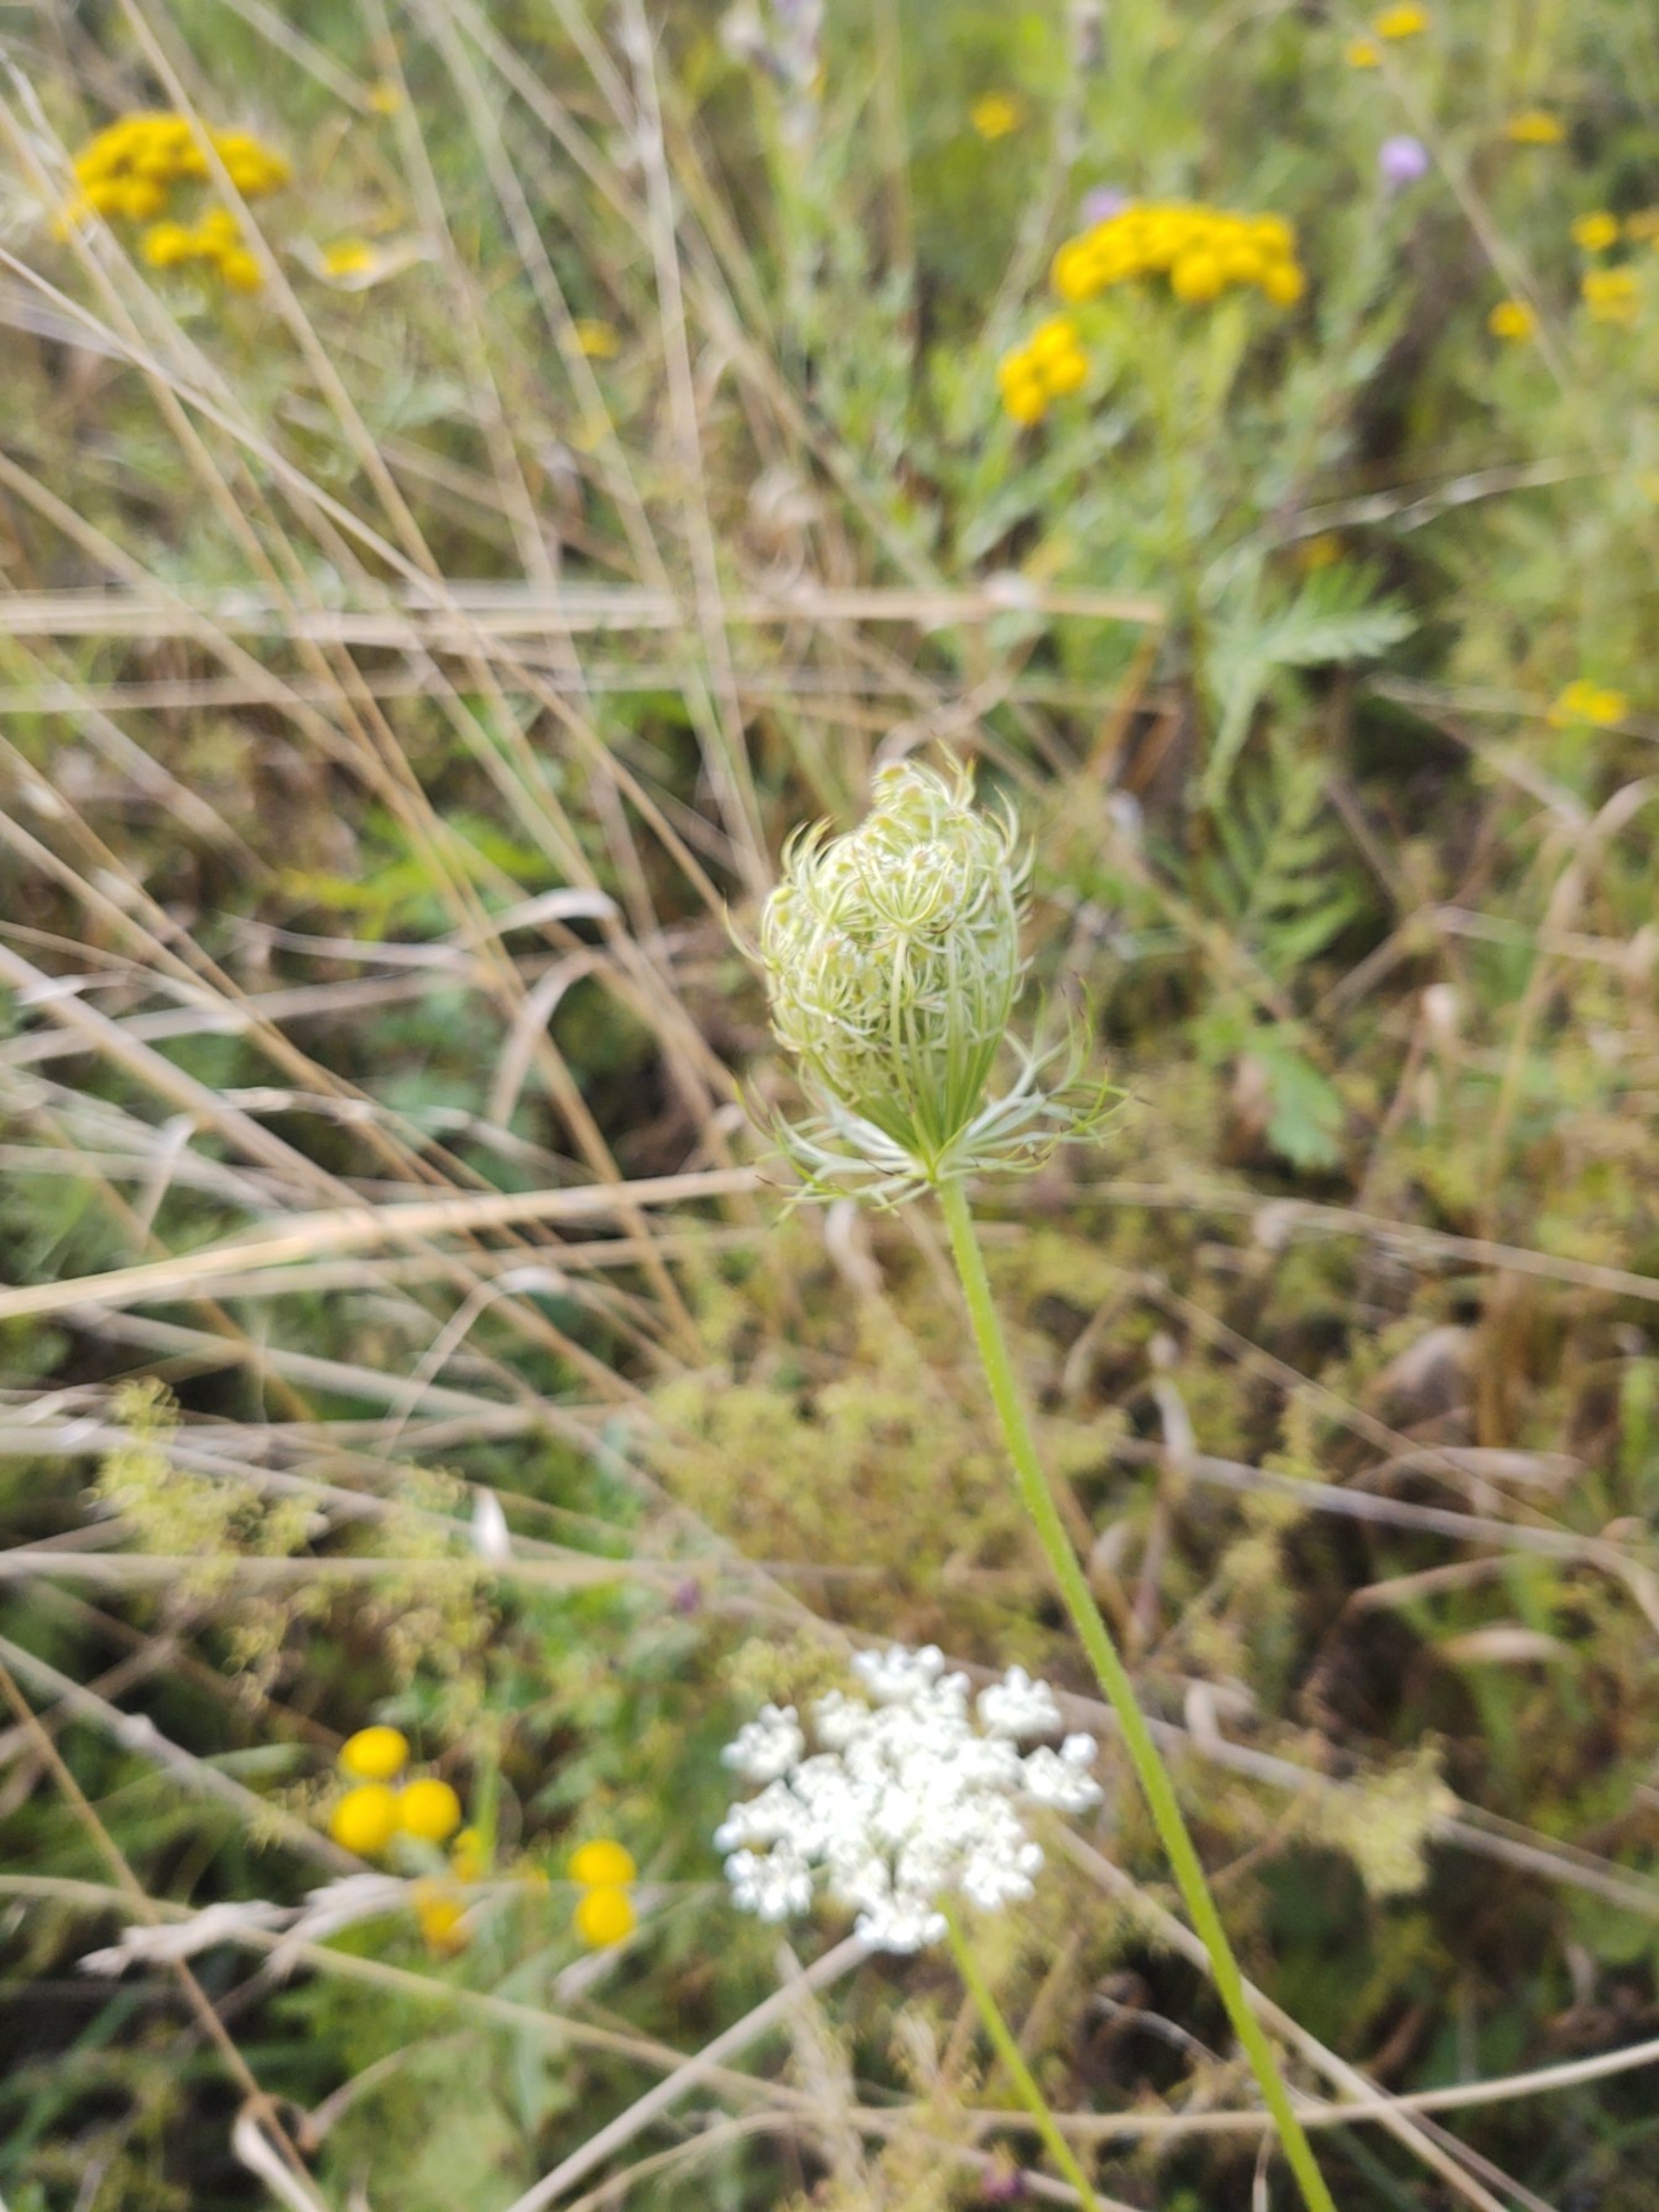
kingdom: Plantae
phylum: Tracheophyta
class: Magnoliopsida
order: Apiales
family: Apiaceae
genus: Daucus
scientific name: Daucus carota
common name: Vild gulerod
